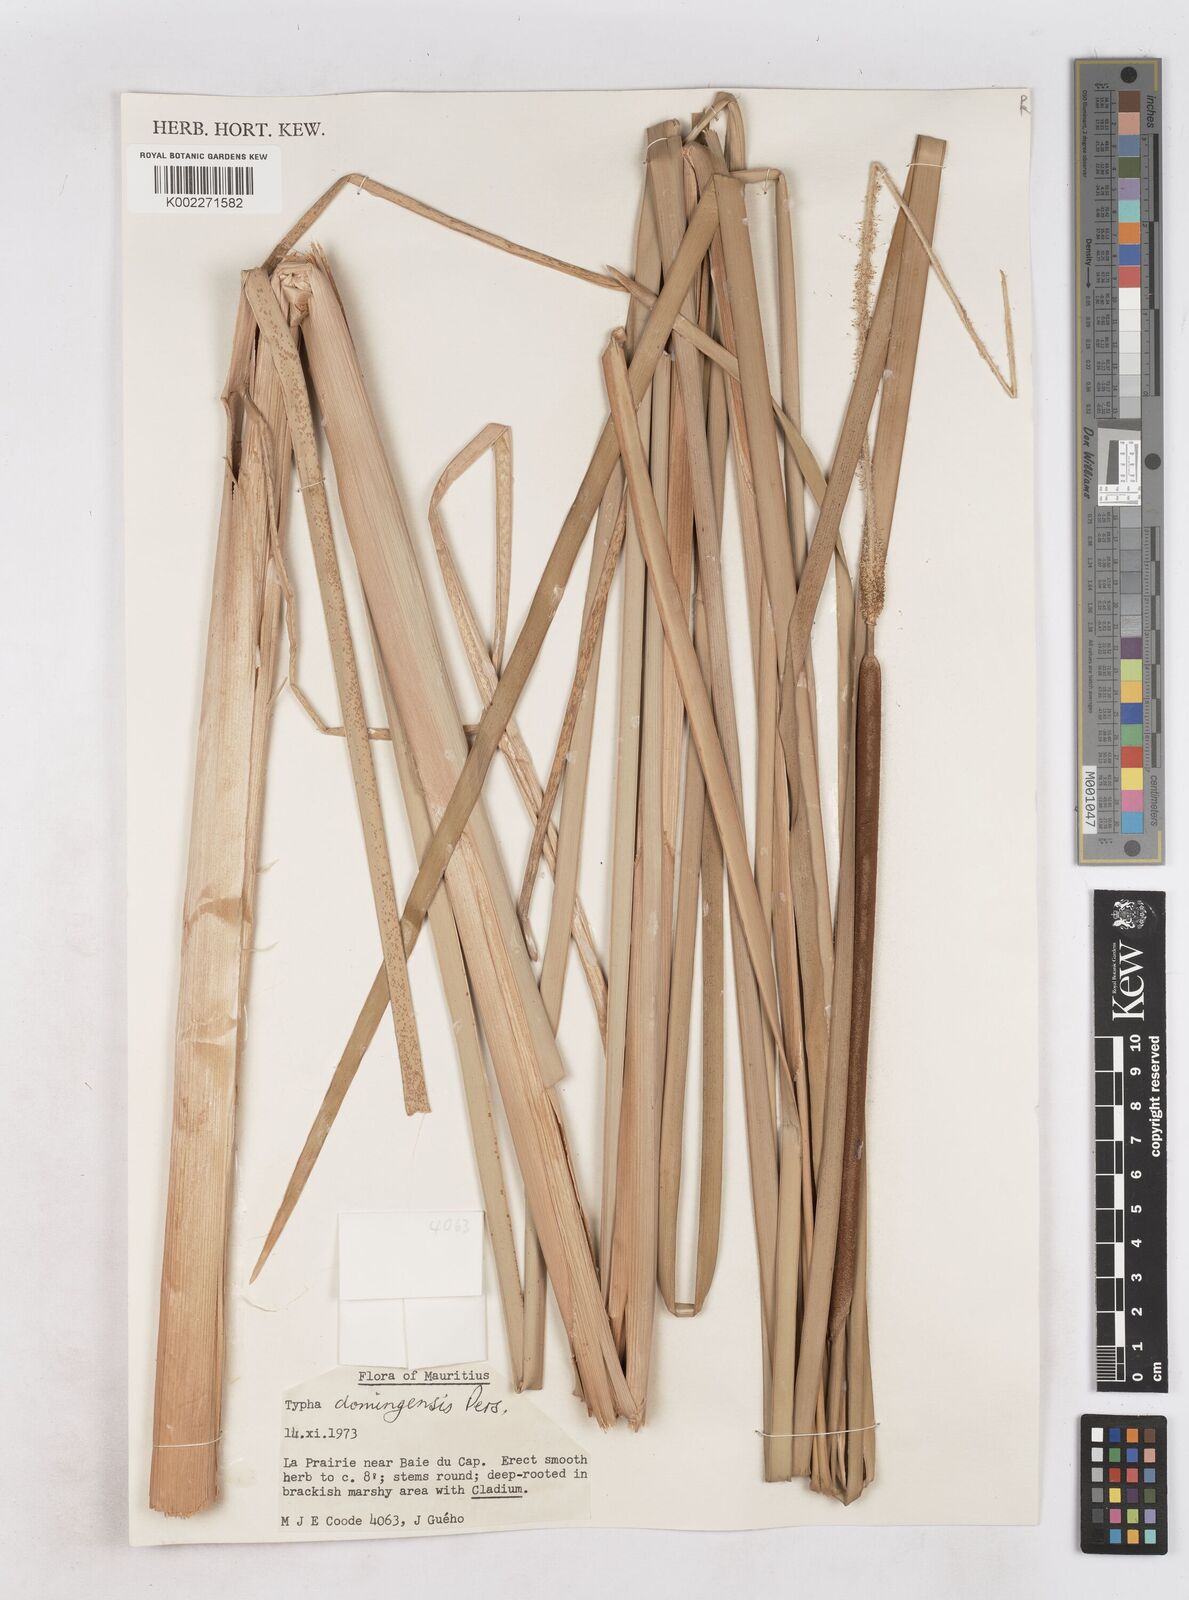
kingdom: Plantae
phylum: Tracheophyta
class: Liliopsida
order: Poales
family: Typhaceae
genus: Typha
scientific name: Typha domingensis
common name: Southern cattail
